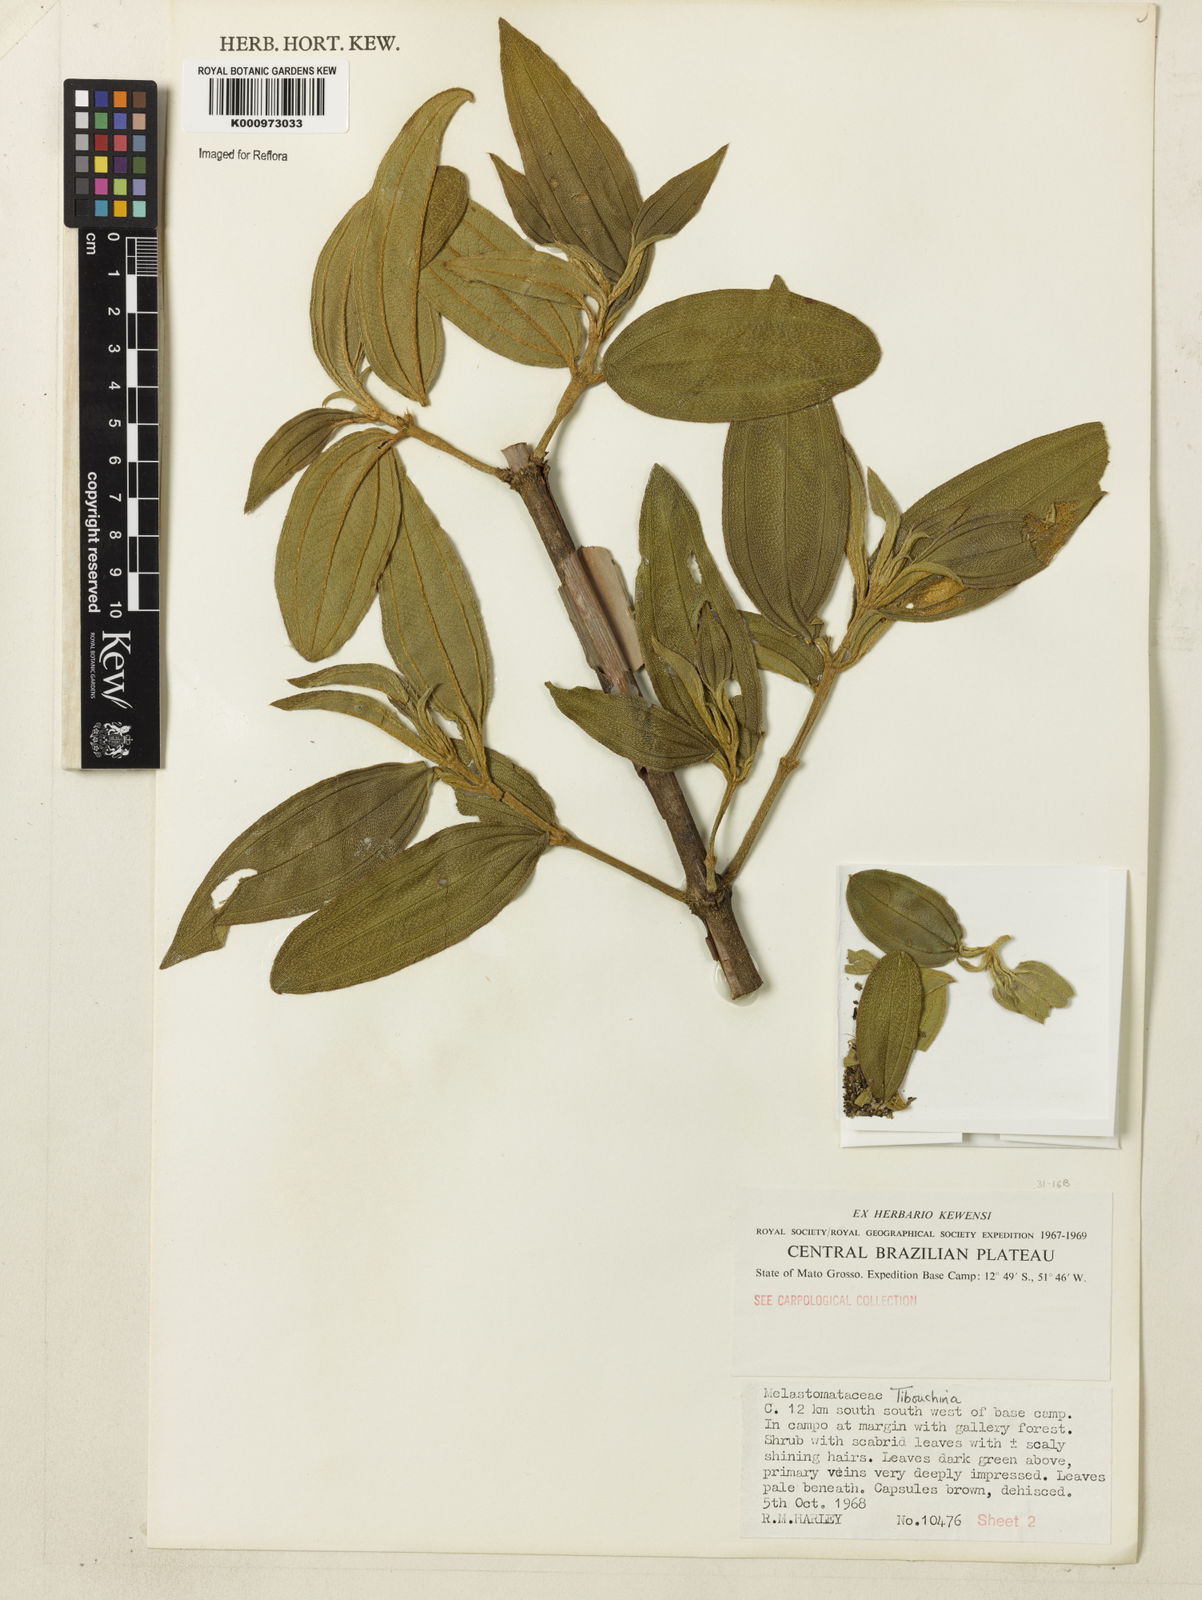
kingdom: Plantae
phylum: Tracheophyta
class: Magnoliopsida
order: Myrtales
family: Melastomataceae
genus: Tibouchina
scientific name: Tibouchina
